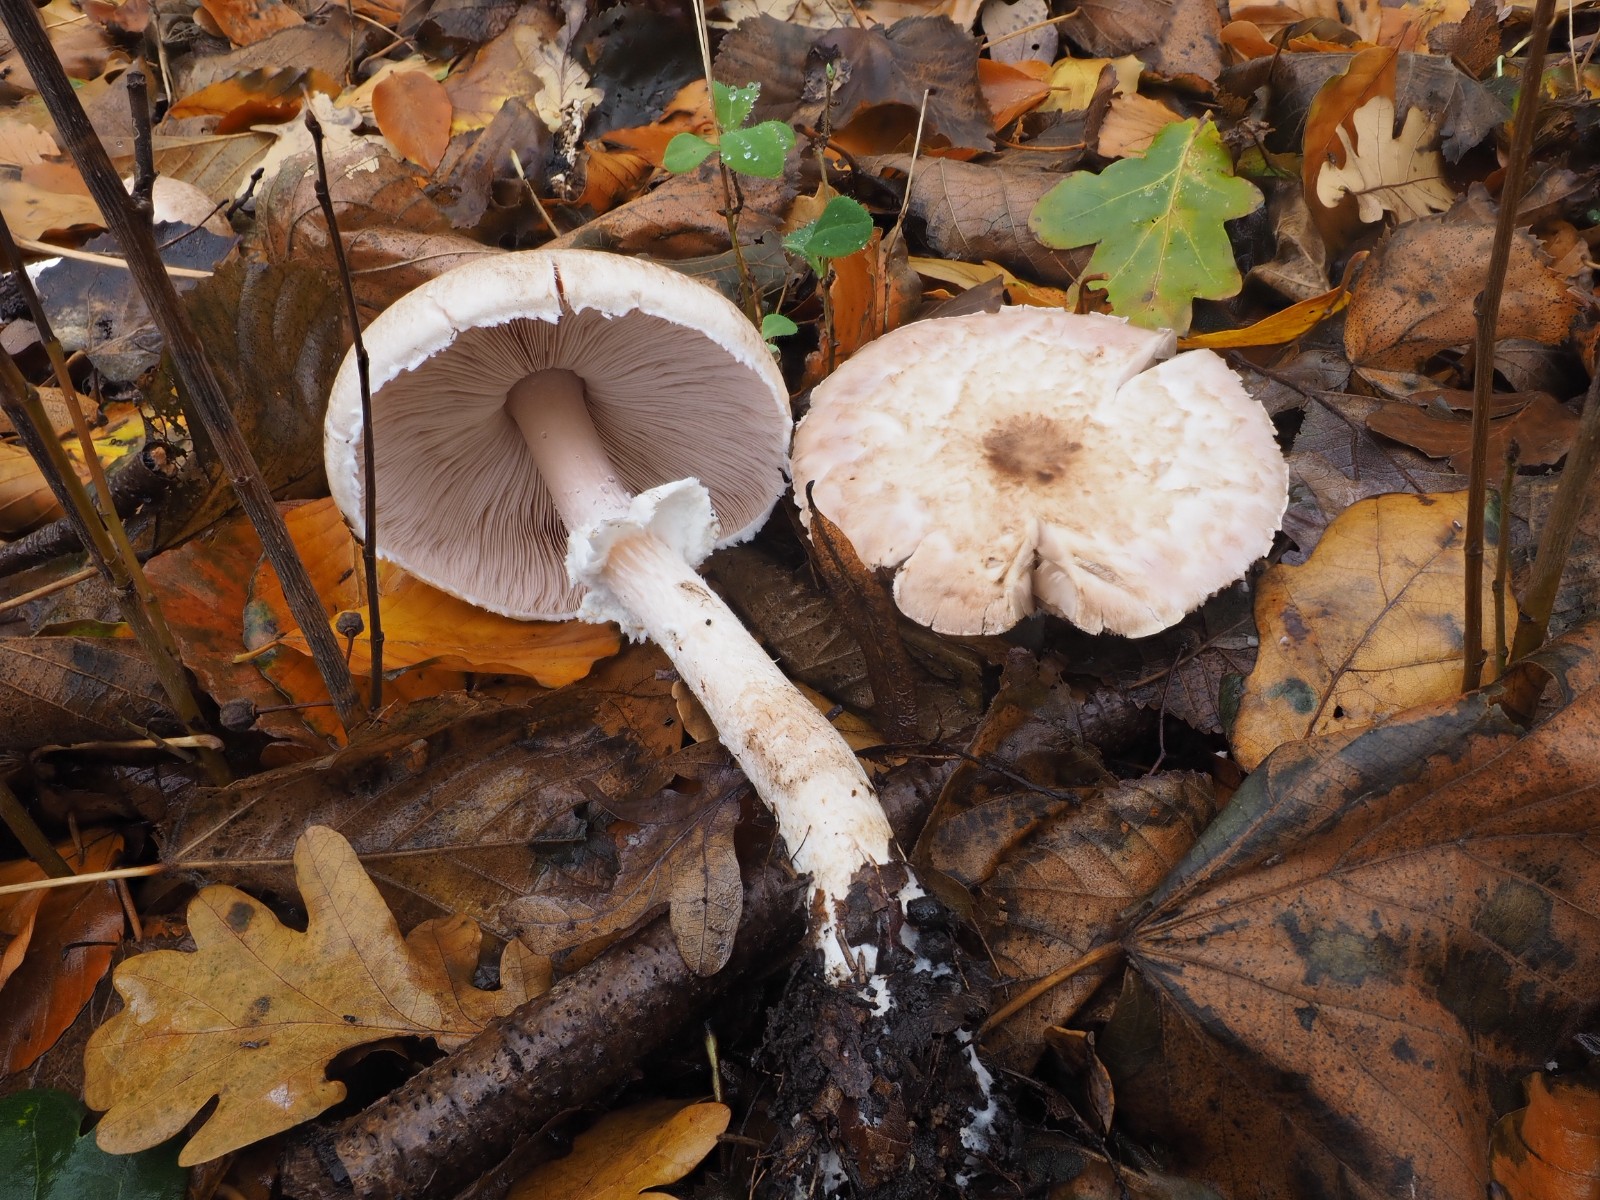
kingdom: Fungi
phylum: Basidiomycota
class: Agaricomycetes
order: Agaricales
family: Agaricaceae
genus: Agaricus
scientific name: Agaricus impudicus
